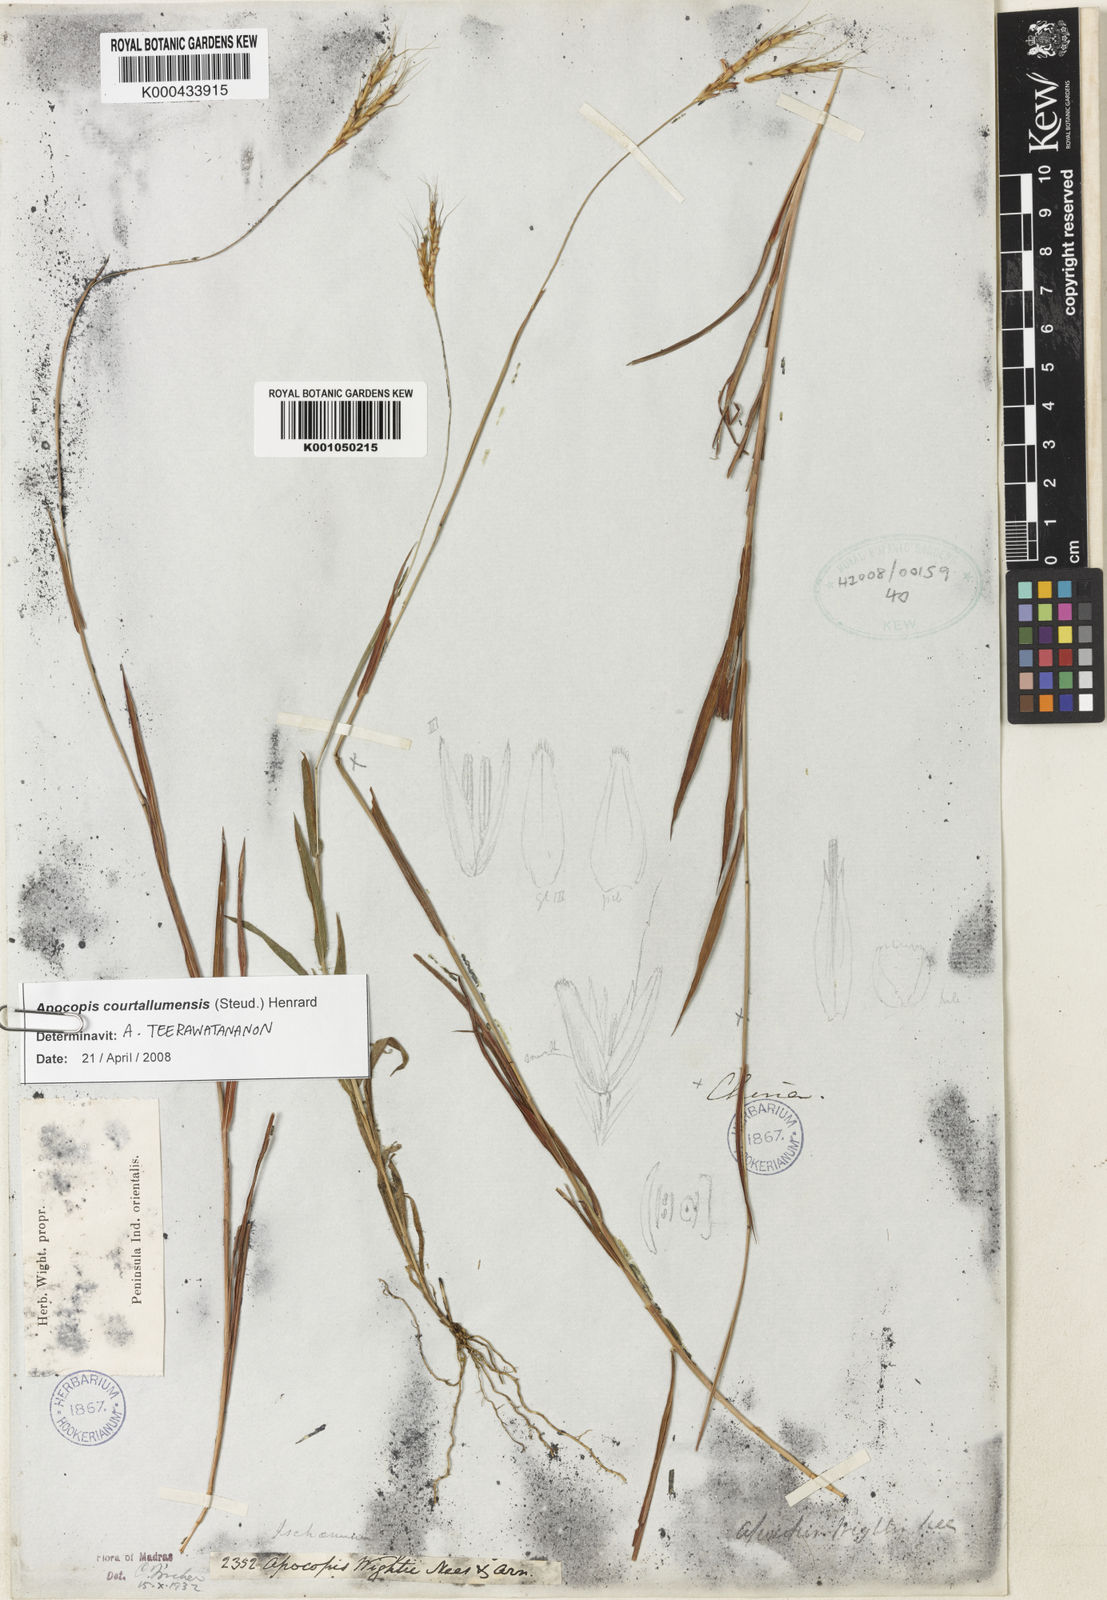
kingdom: Plantae
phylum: Tracheophyta
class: Liliopsida
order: Poales
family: Poaceae
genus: Apocopis
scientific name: Apocopis courtallumensis
